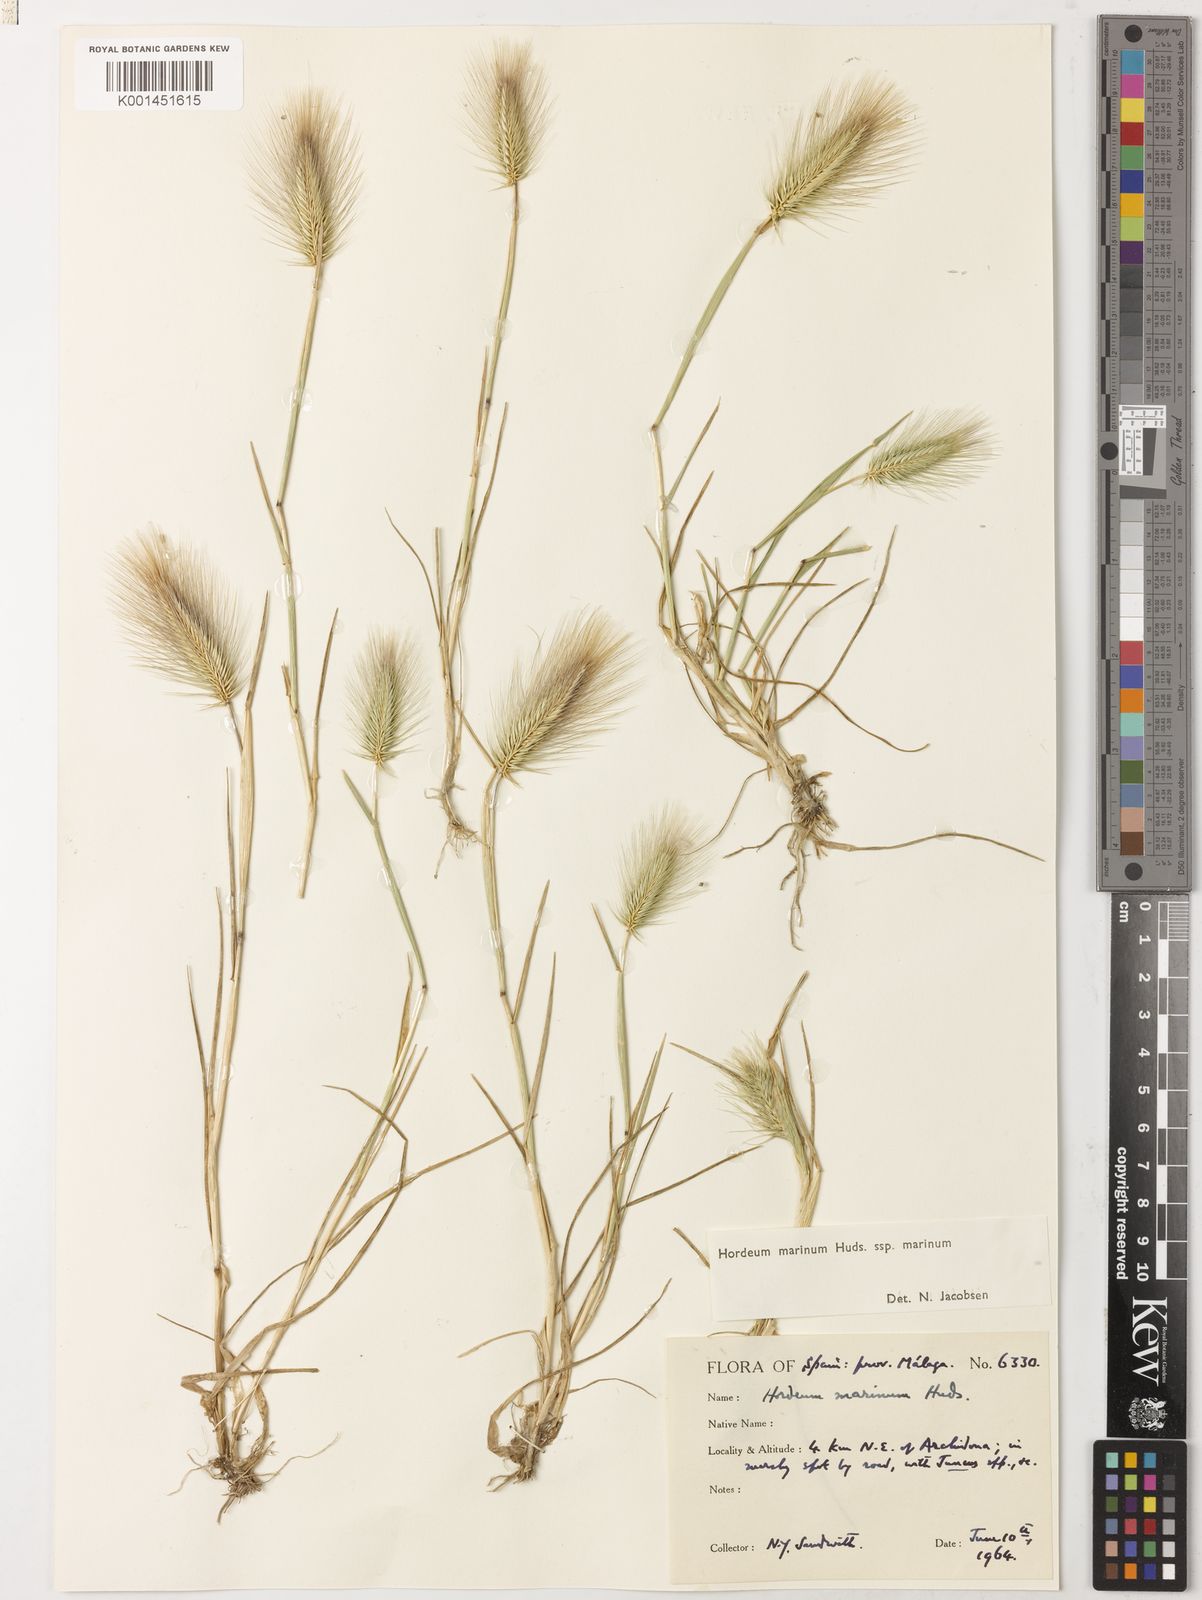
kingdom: Plantae
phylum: Tracheophyta
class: Liliopsida
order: Poales
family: Poaceae
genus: Hordeum
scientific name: Hordeum marinum
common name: Sea barley
